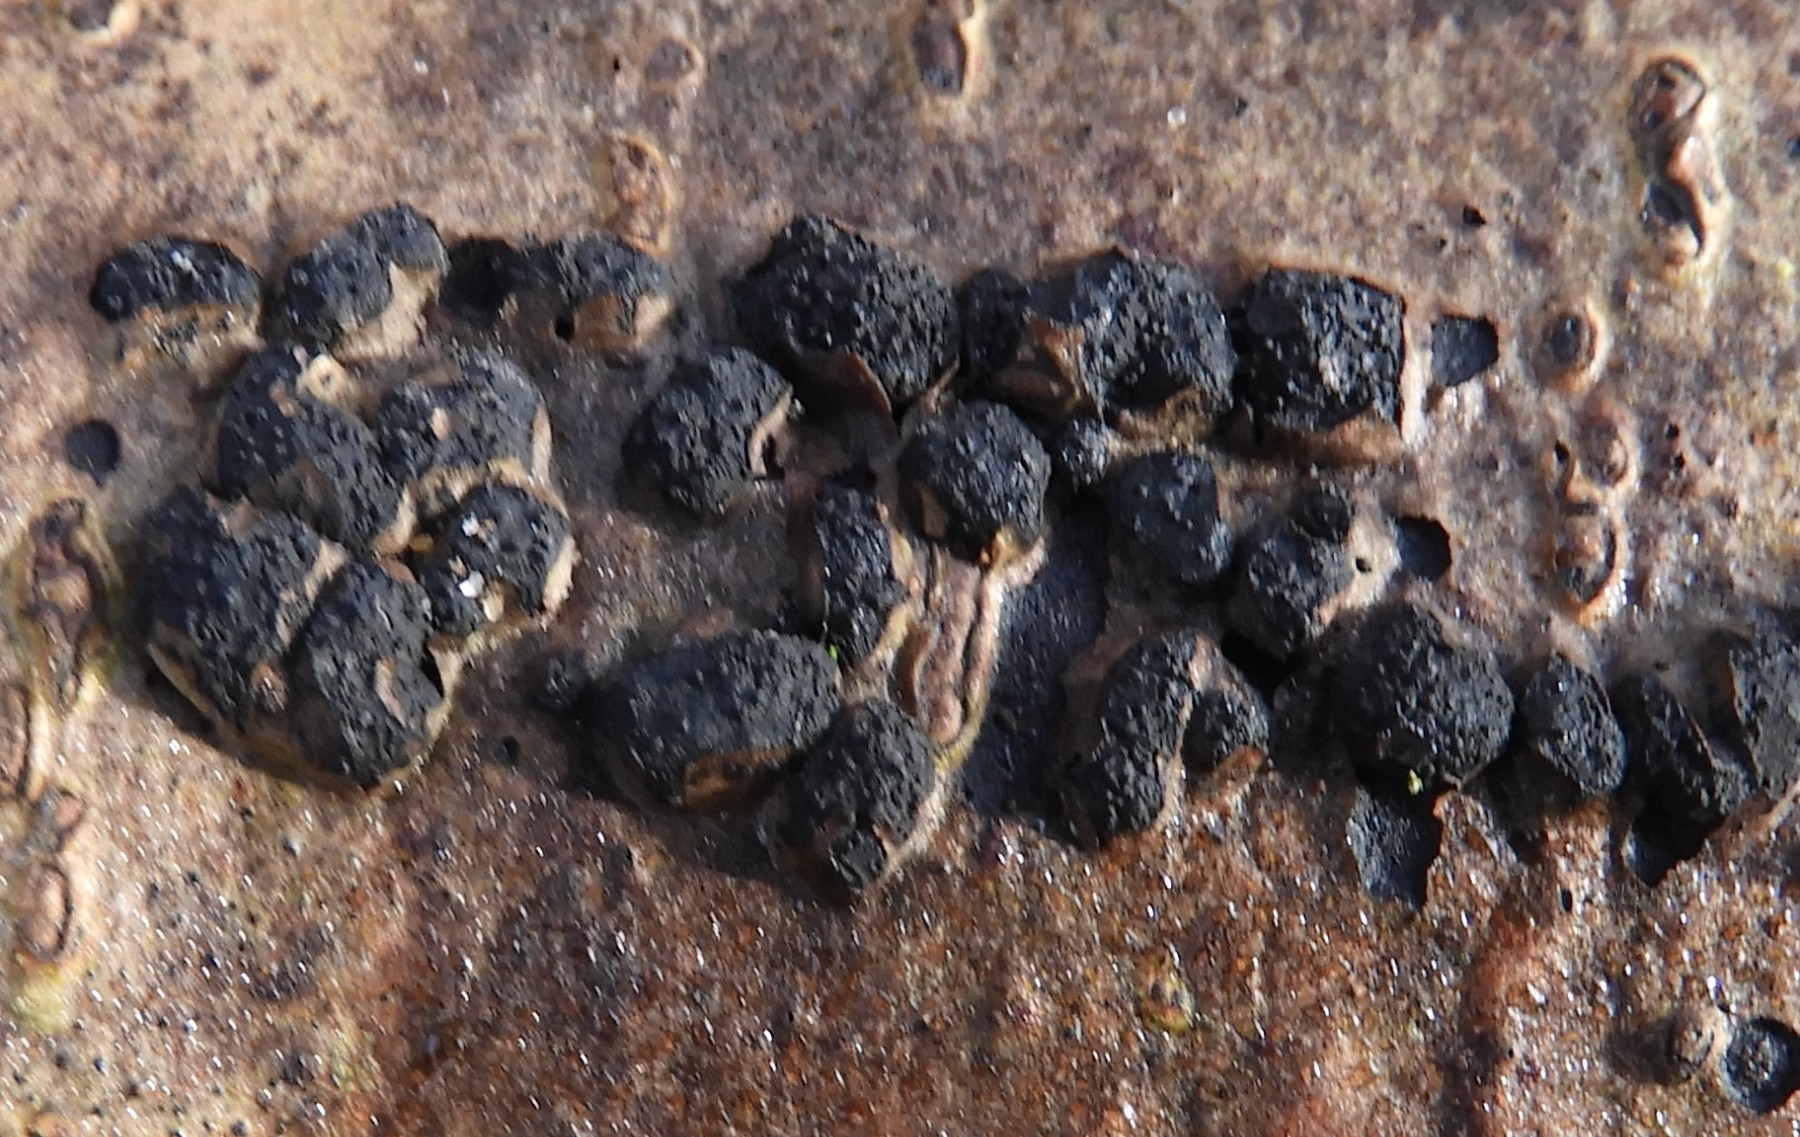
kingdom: Fungi
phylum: Ascomycota
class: Sordariomycetes
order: Xylariales
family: Diatrypaceae
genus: Diatrypella
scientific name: Diatrypella quercina
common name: ege-kulskorpe
